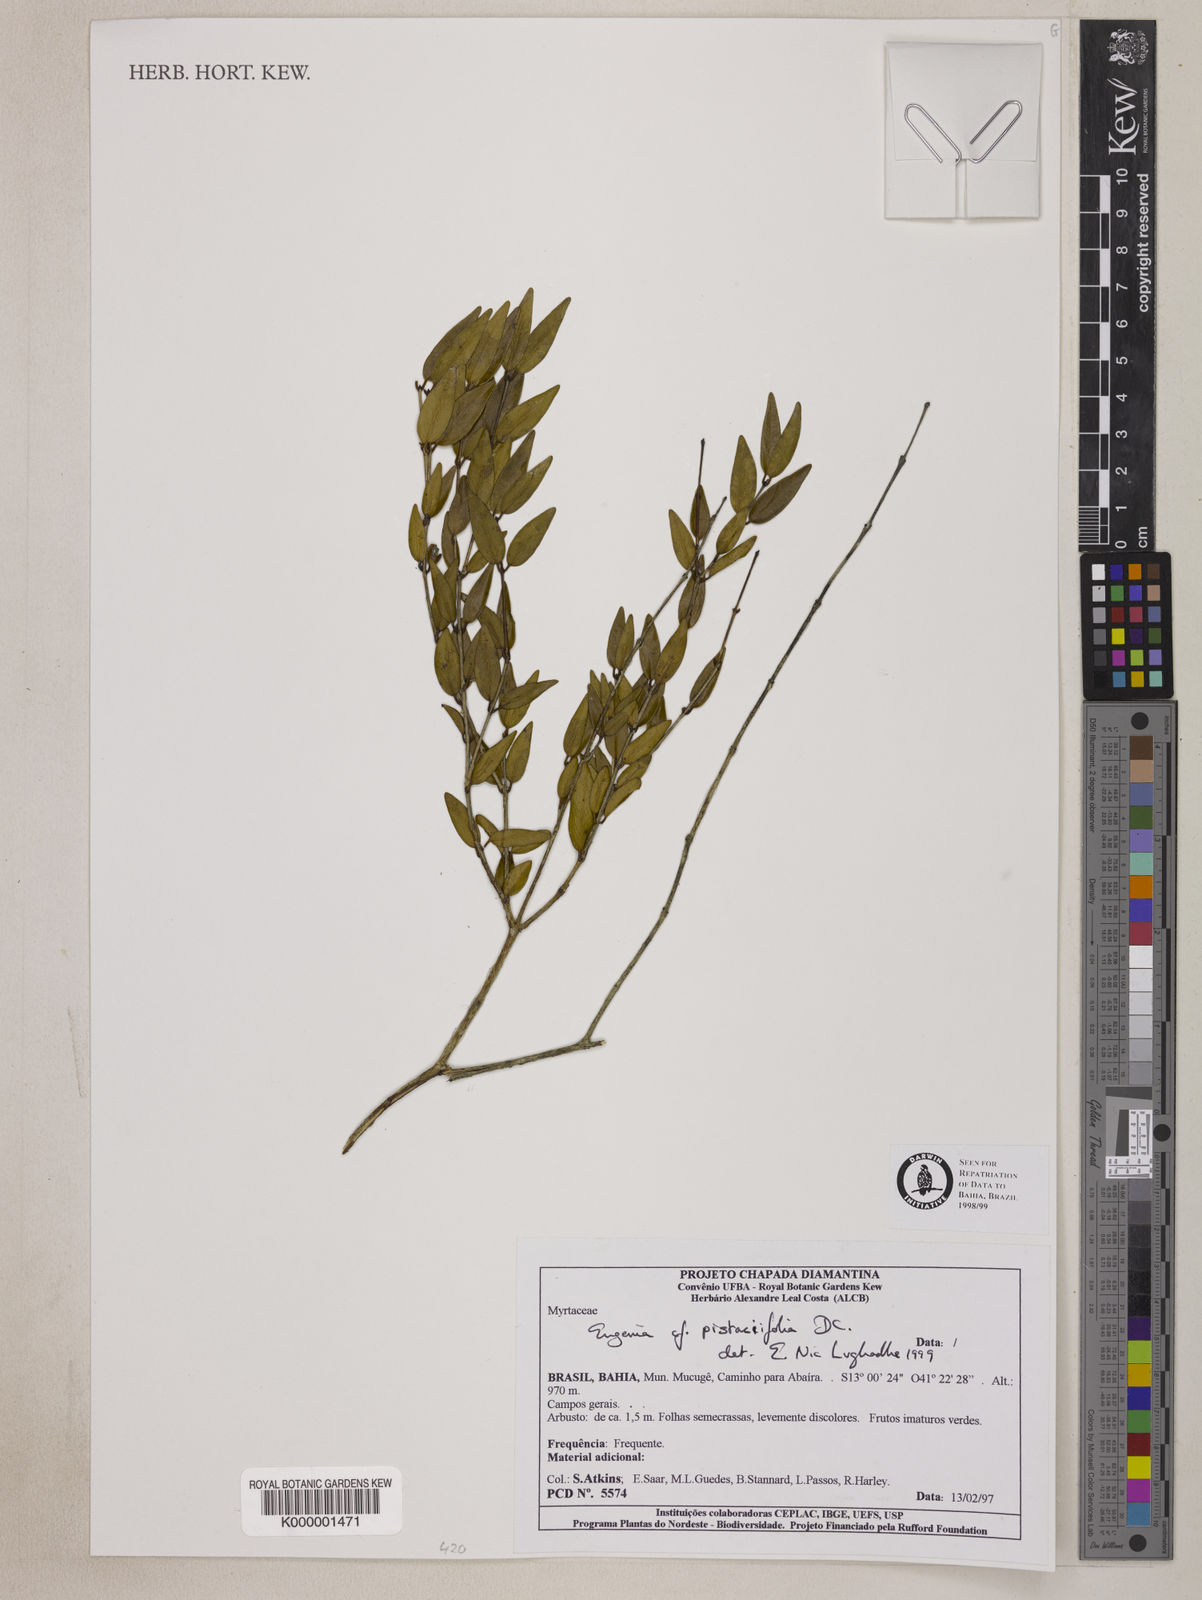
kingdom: Plantae
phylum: Tracheophyta
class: Magnoliopsida
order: Myrtales
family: Myrtaceae
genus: Eugenia
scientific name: Eugenia pistaciifolia
